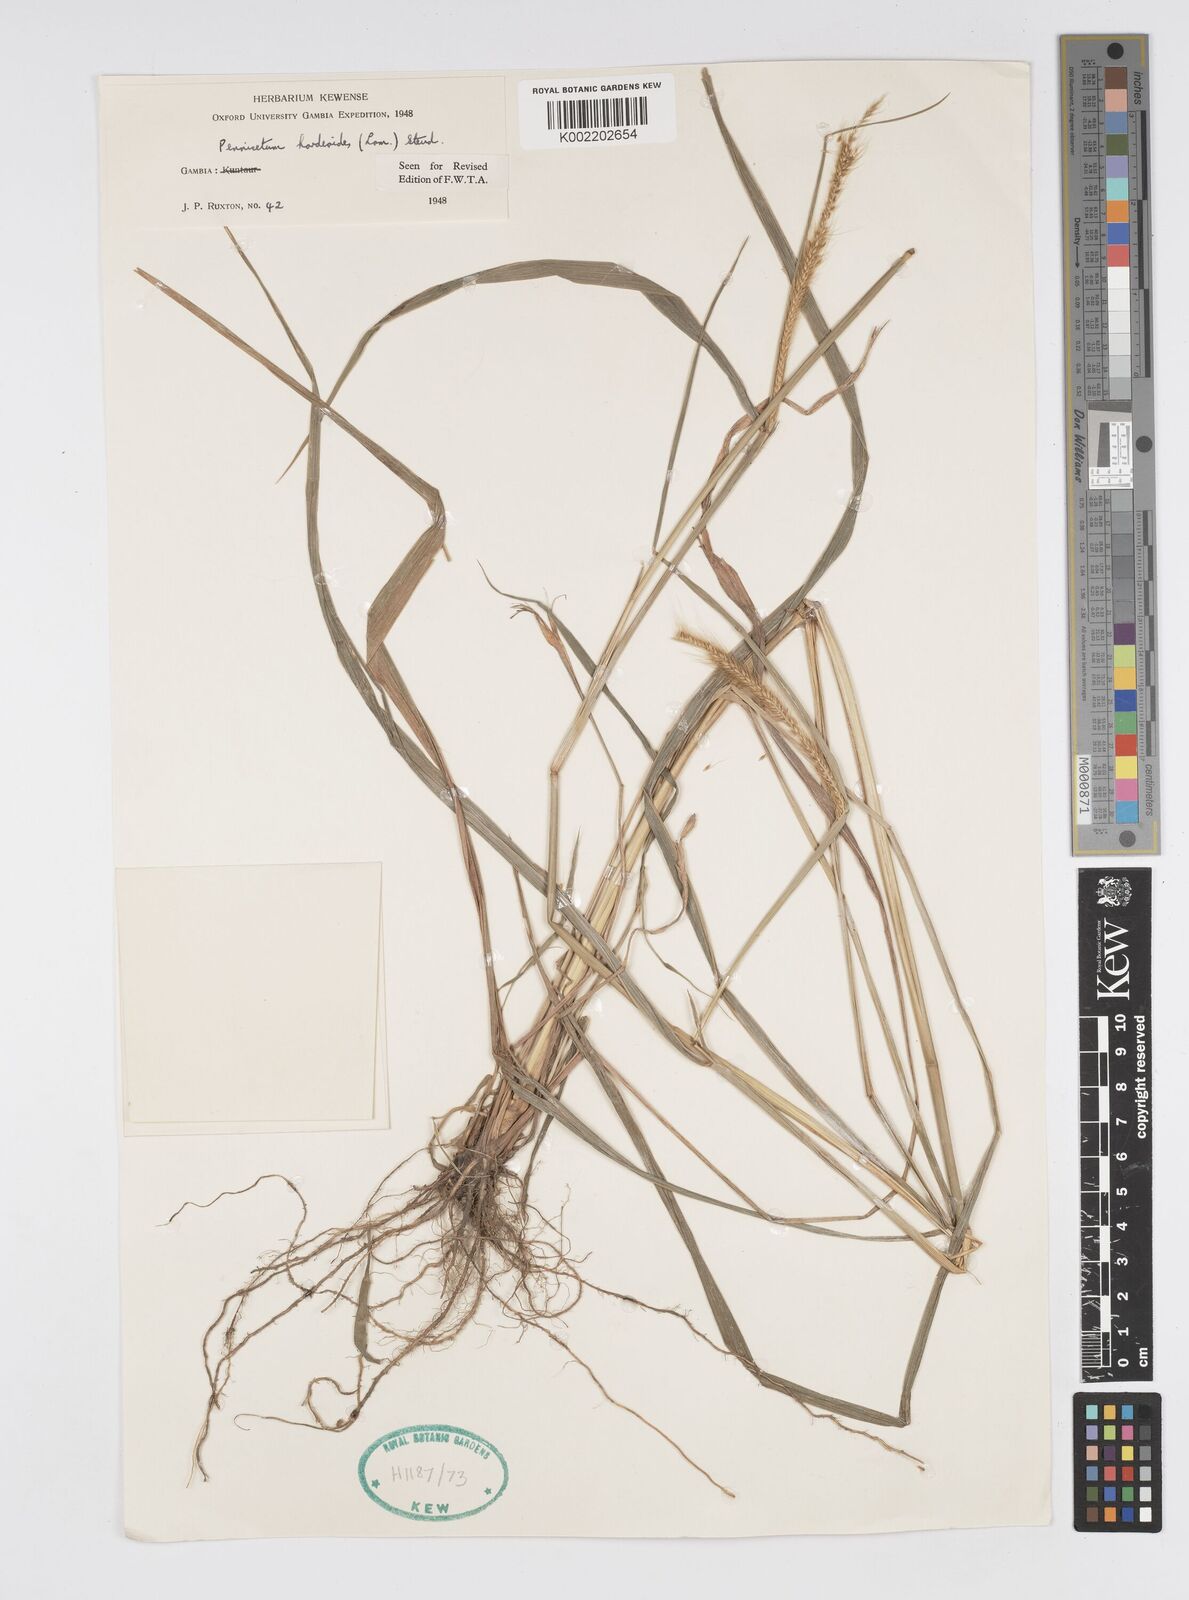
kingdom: Plantae
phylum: Tracheophyta
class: Liliopsida
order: Poales
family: Poaceae
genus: Cenchrus
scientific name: Cenchrus hordeoides
